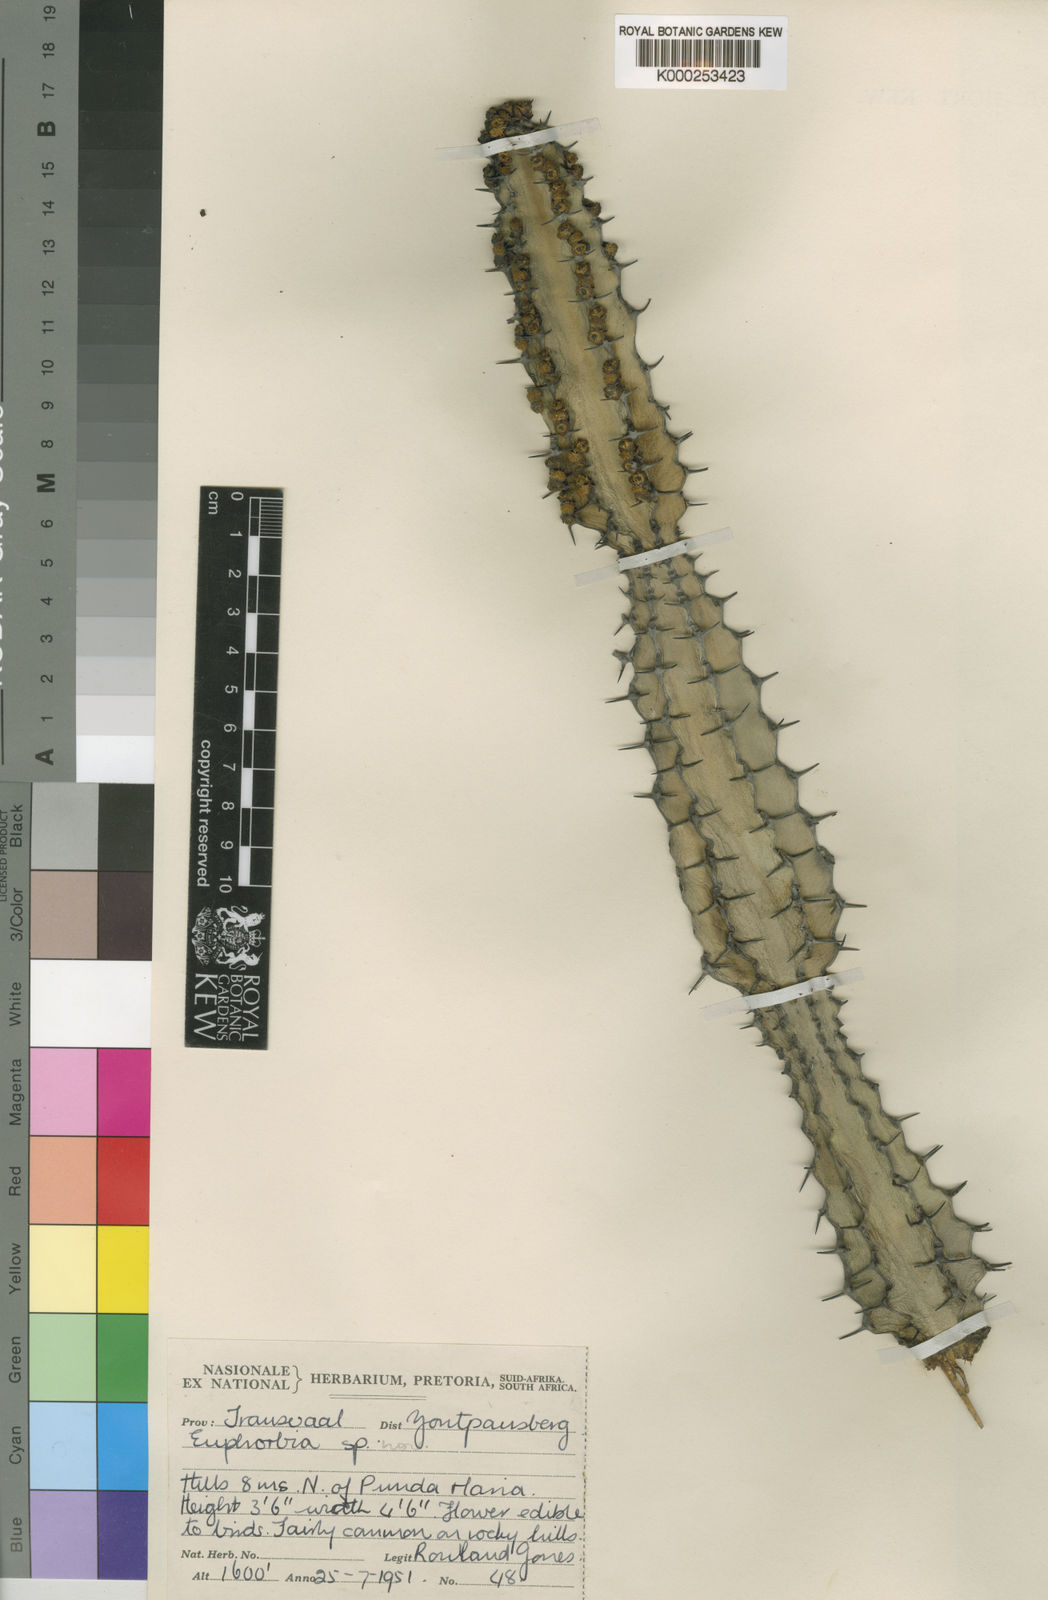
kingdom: Plantae
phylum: Tracheophyta
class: Magnoliopsida
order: Malpighiales
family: Euphorbiaceae
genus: Euphorbia
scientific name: Euphorbia rowlandii
